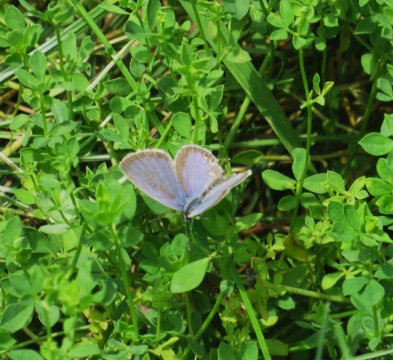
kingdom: Animalia
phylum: Arthropoda
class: Insecta
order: Lepidoptera
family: Lycaenidae
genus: Elkalyce
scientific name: Elkalyce comyntas
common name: Eastern Tailed-Blue
